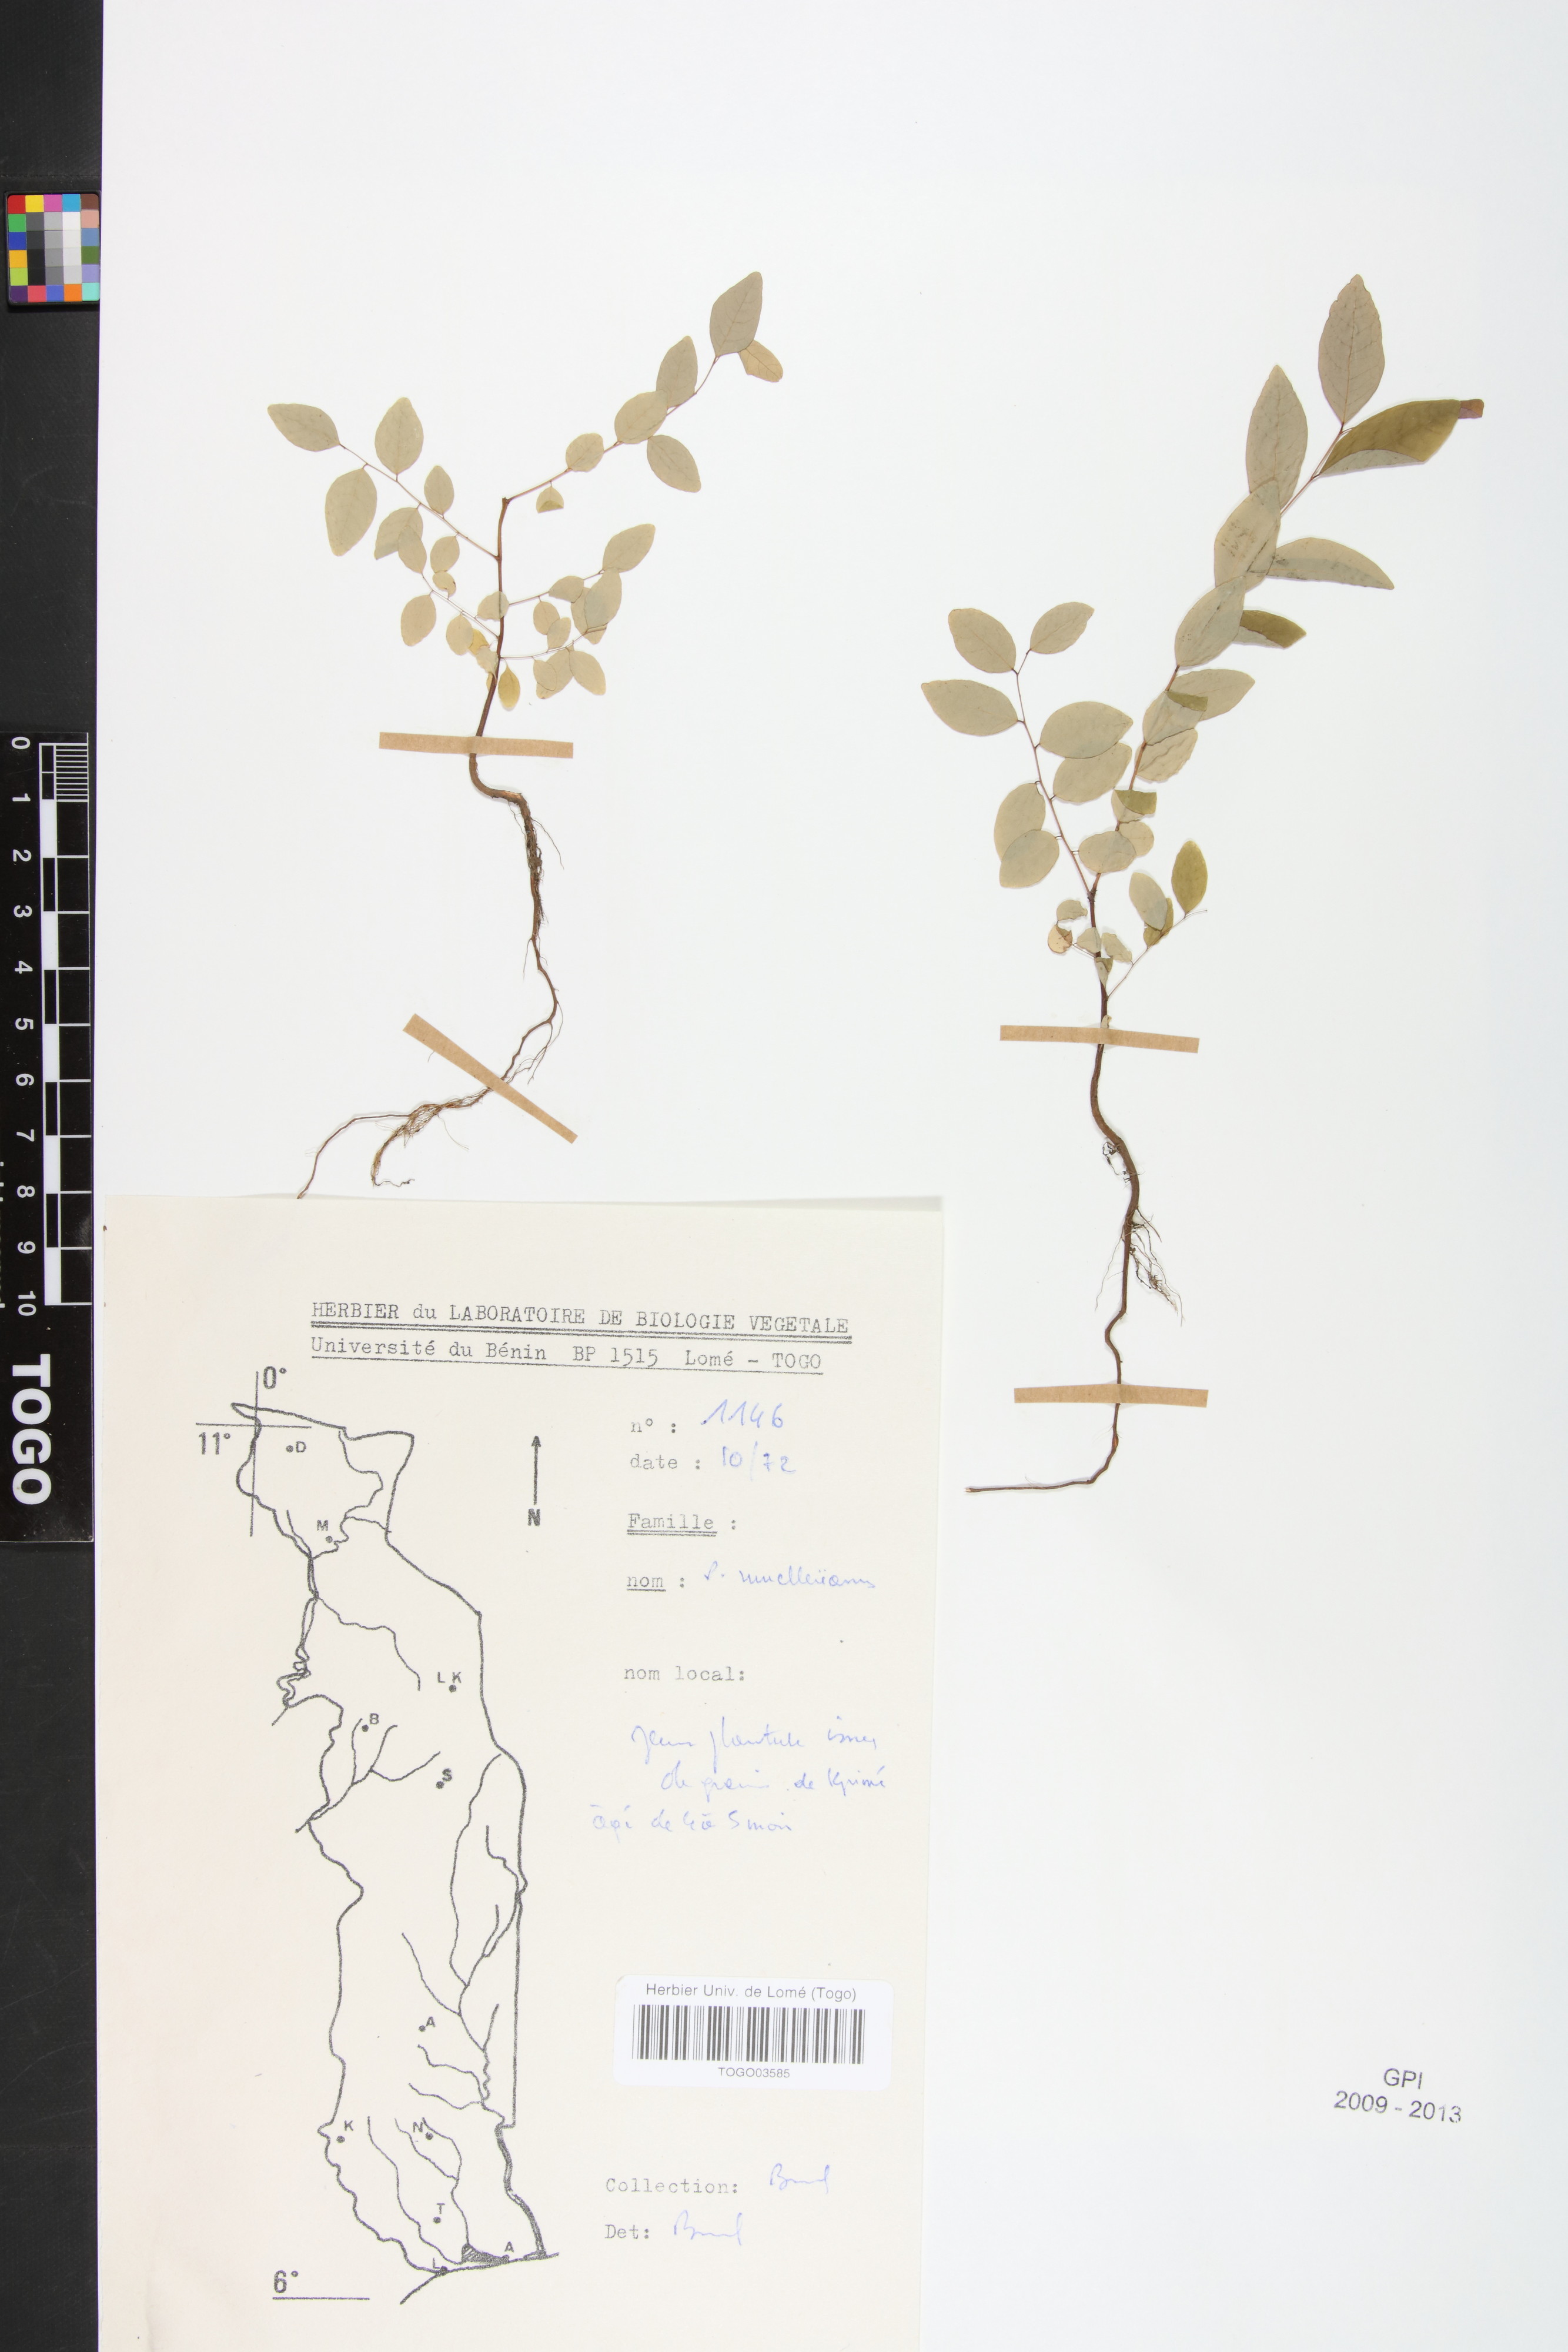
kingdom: Plantae
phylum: Tracheophyta
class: Magnoliopsida
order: Malpighiales
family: Phyllanthaceae
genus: Phyllanthus
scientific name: Phyllanthus muellerianus
